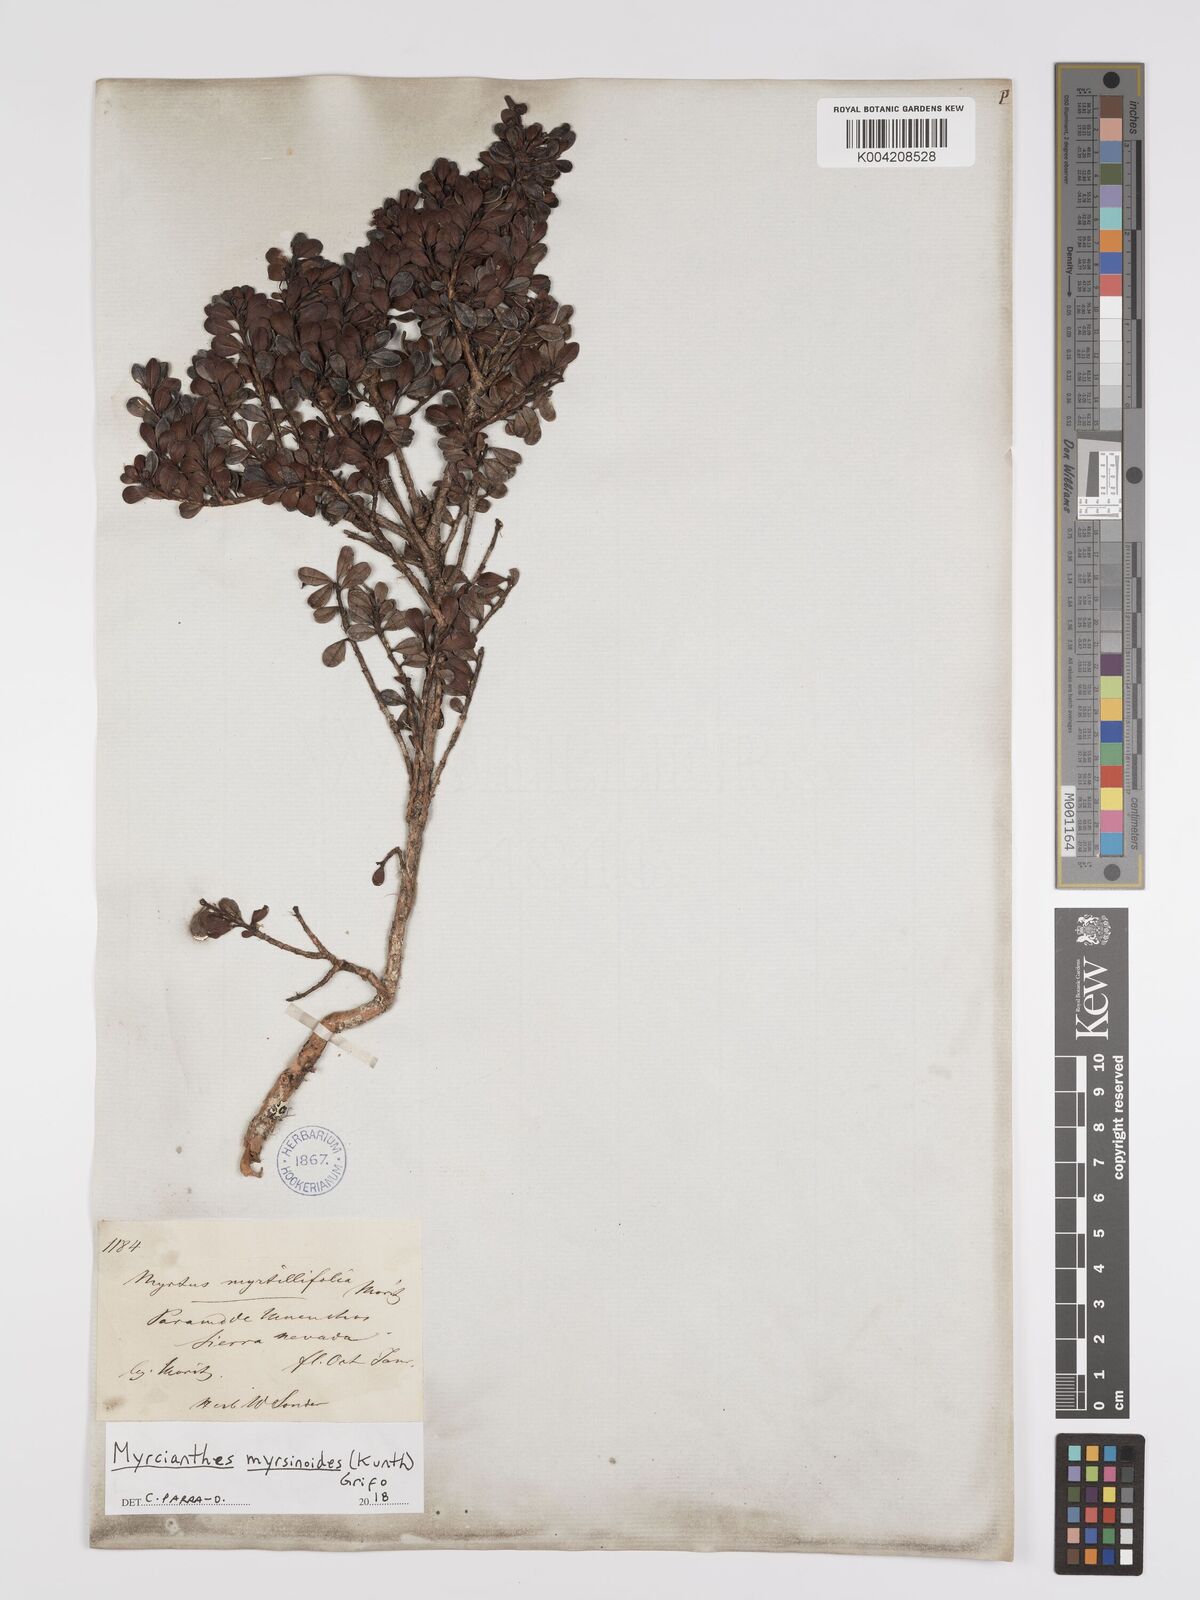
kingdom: Plantae
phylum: Tracheophyta
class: Magnoliopsida
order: Myrtales
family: Myrtaceae
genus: Myrcianthes
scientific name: Myrcianthes myrsinoides
